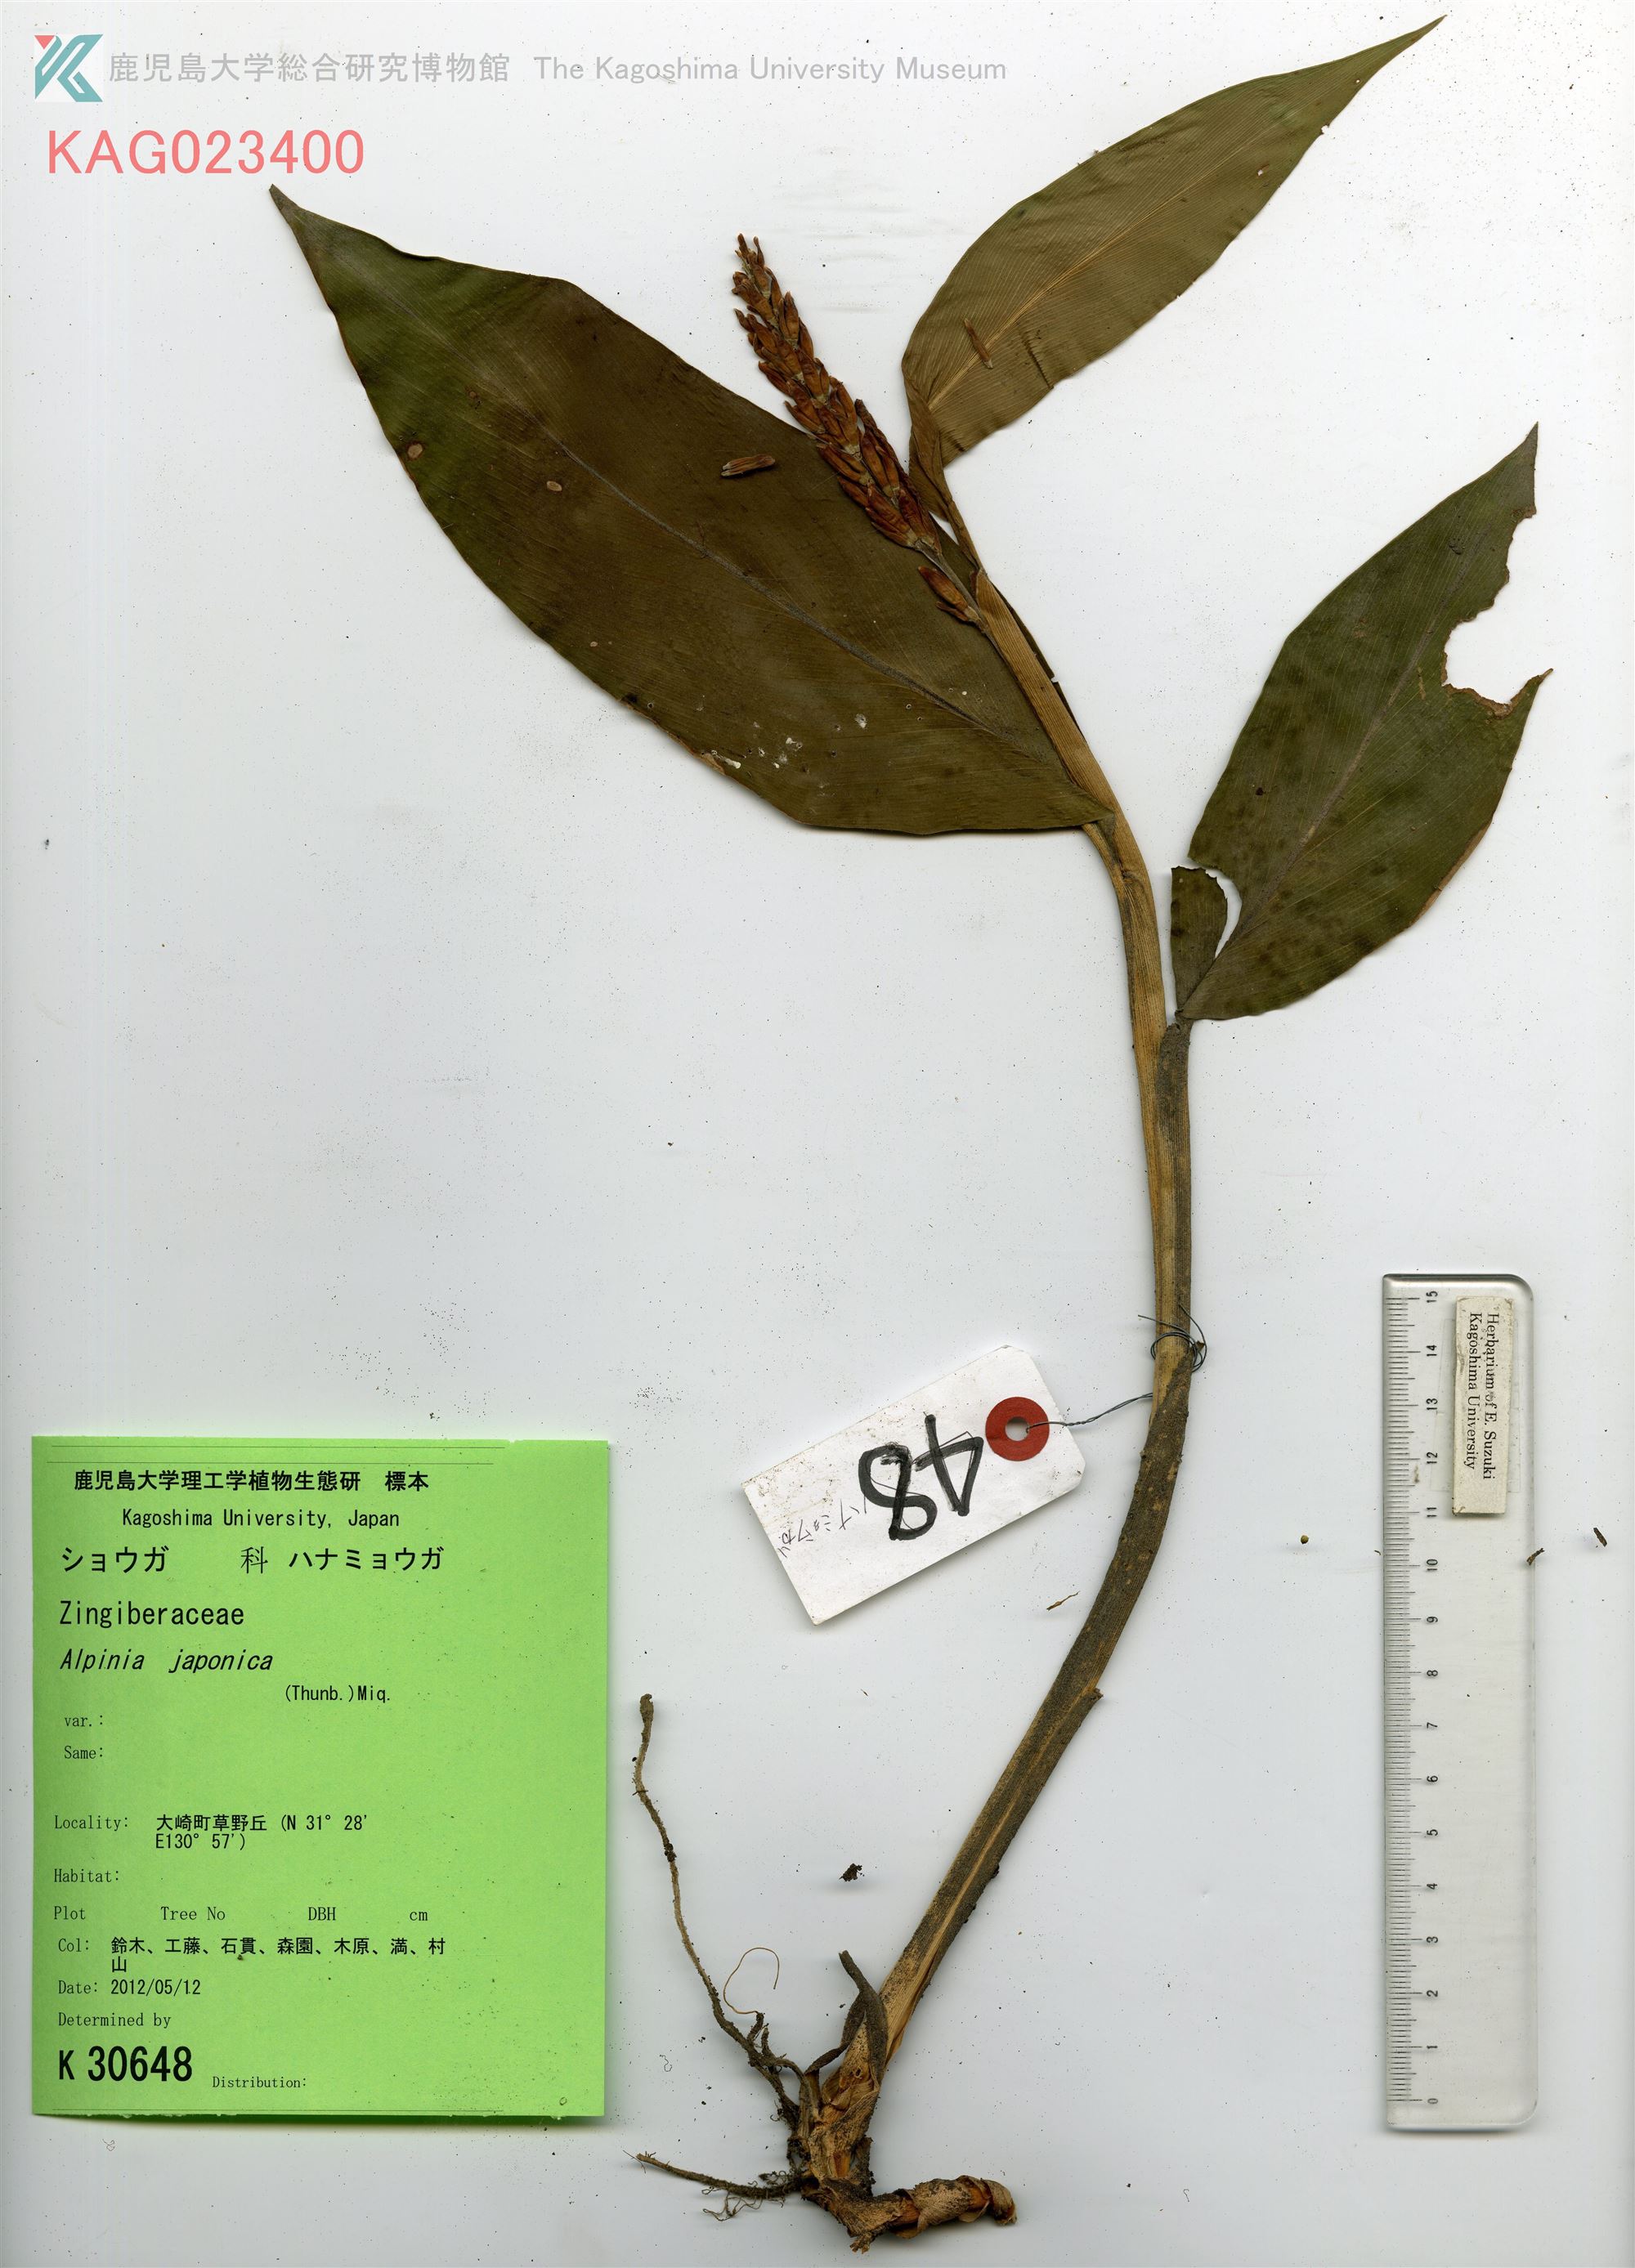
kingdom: Plantae
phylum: Tracheophyta
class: Liliopsida
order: Zingiberales
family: Zingiberaceae
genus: Alpinia
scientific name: Alpinia japonica
